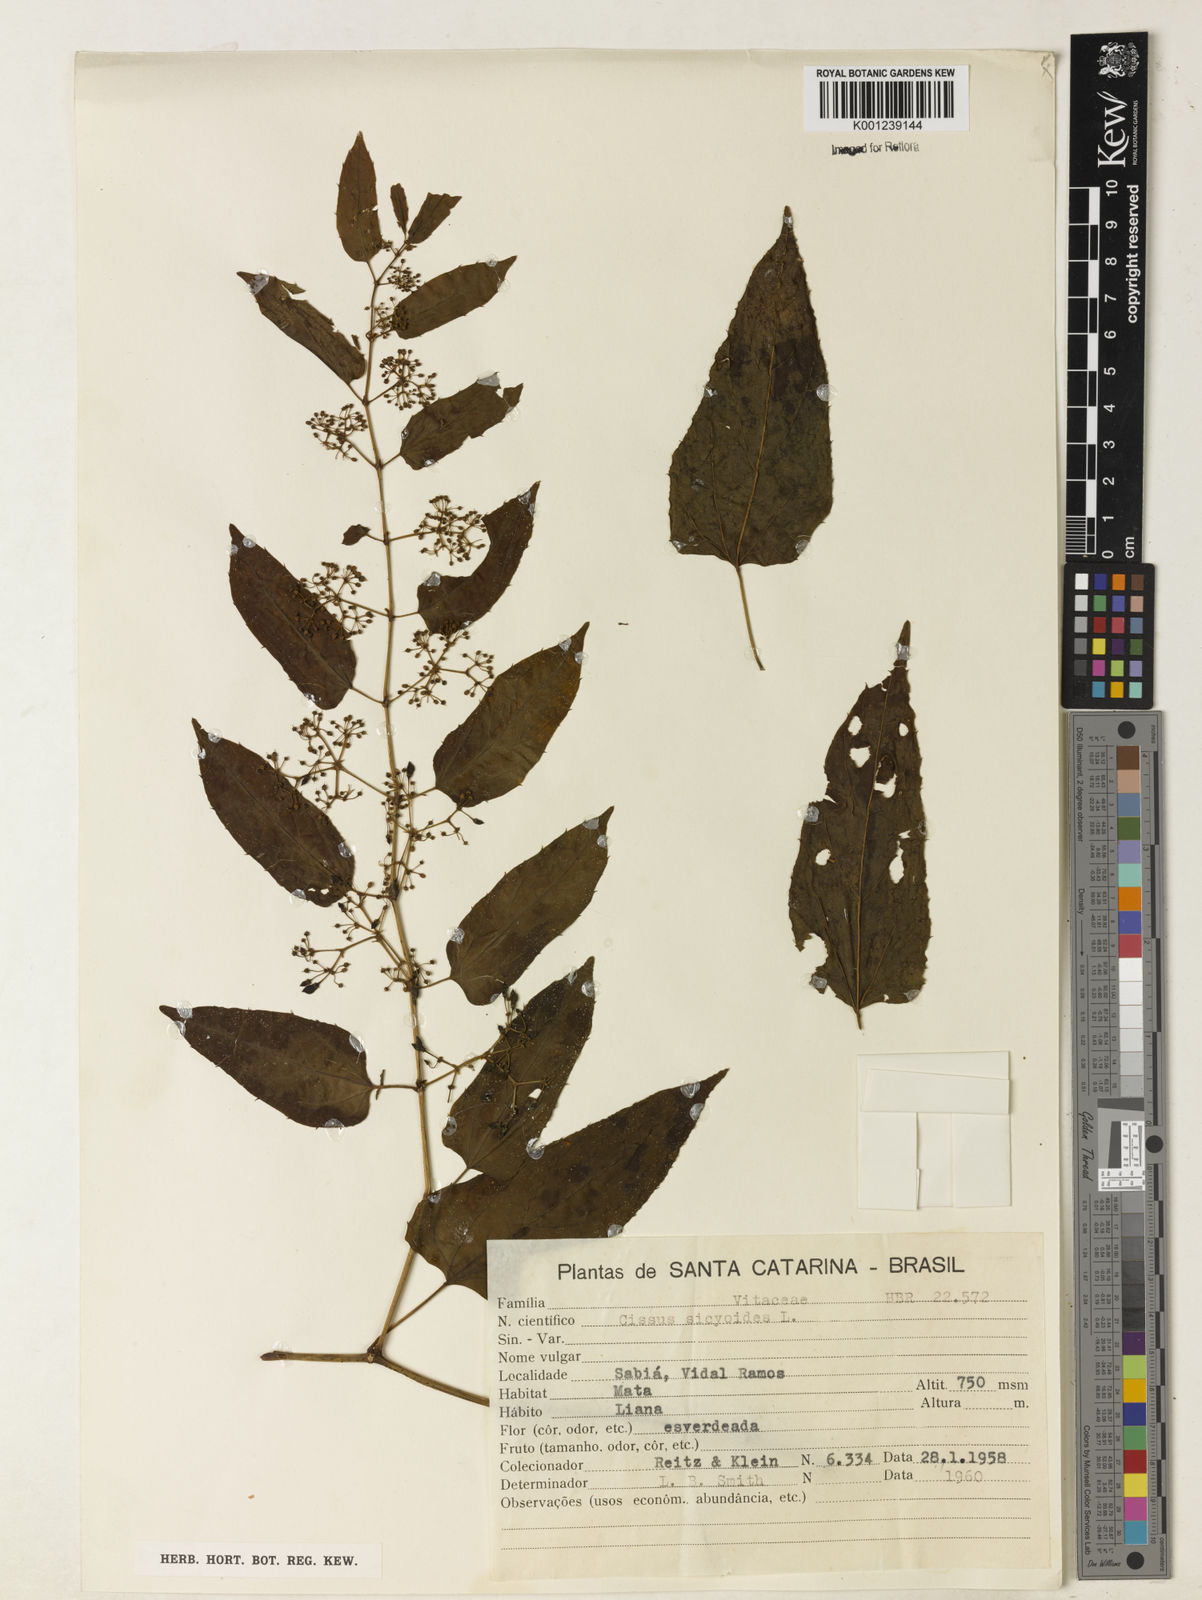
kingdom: Plantae
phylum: Tracheophyta
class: Magnoliopsida
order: Vitales
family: Vitaceae
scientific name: Vitaceae
